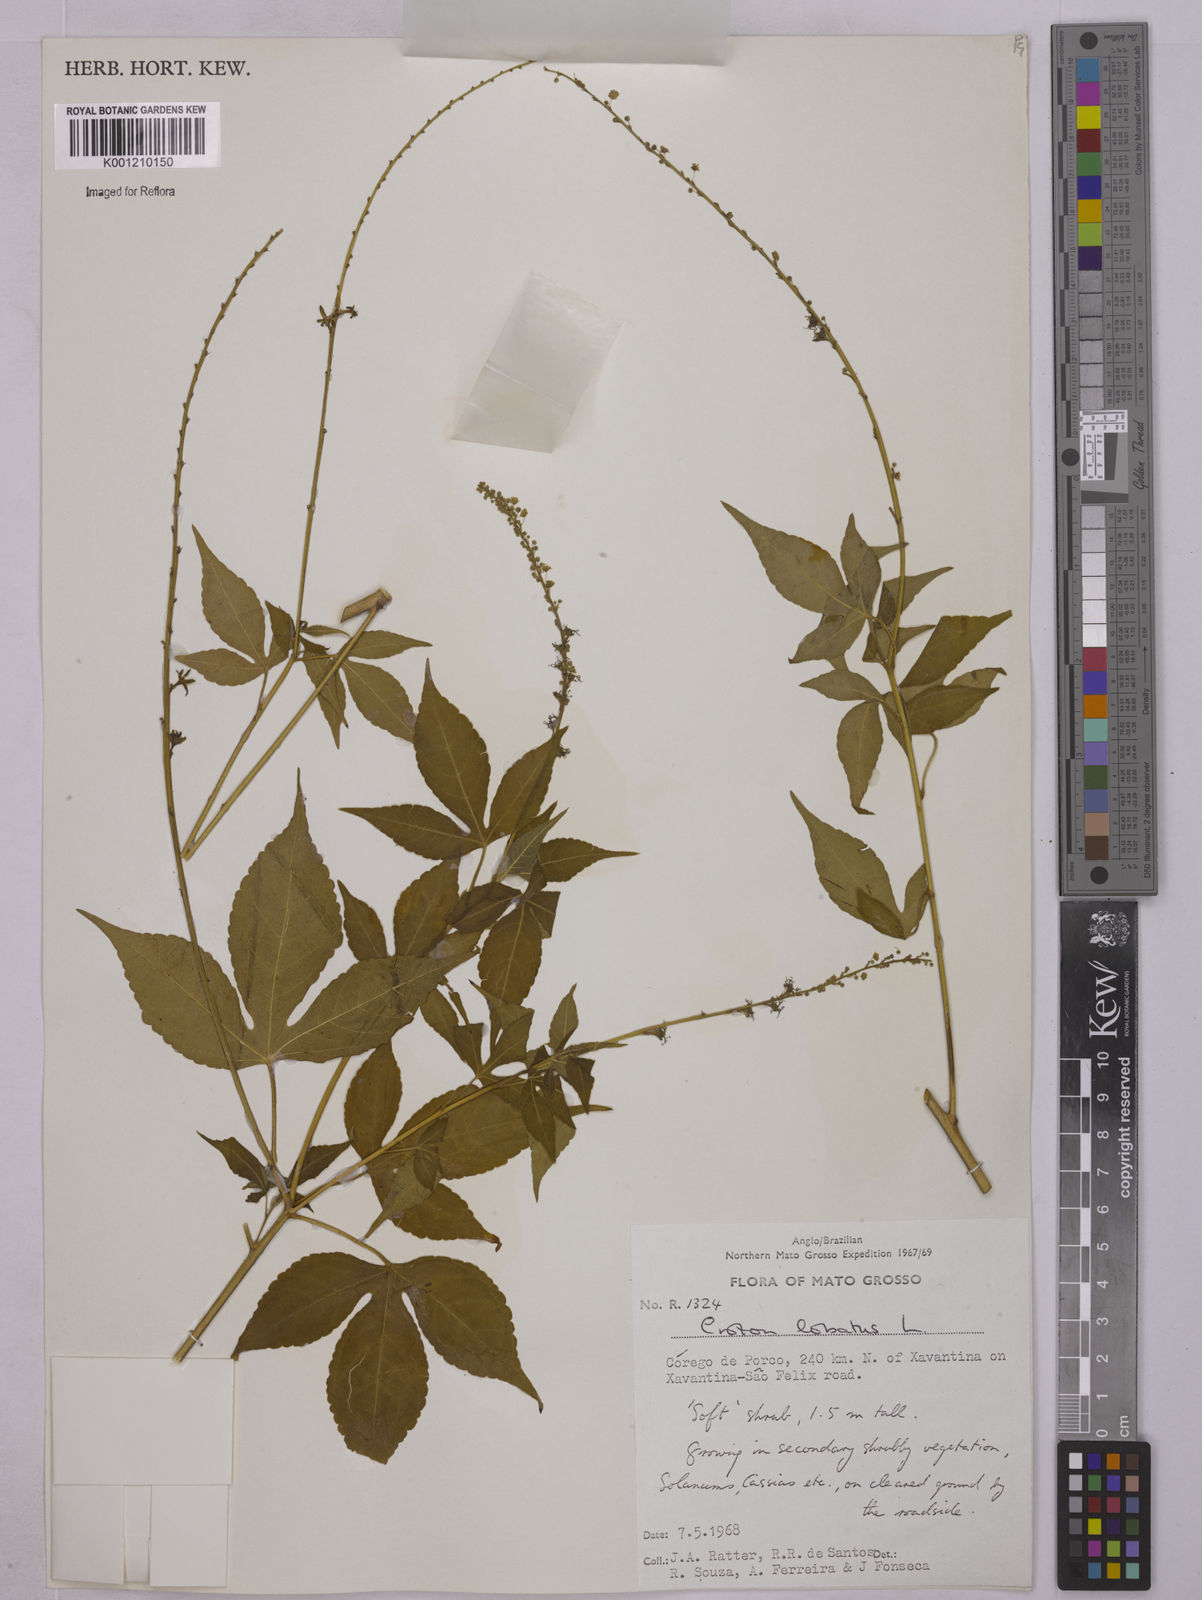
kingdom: Plantae
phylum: Tracheophyta
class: Magnoliopsida
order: Malpighiales
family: Euphorbiaceae
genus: Astraea
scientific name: Astraea lobata
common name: Lobed croton
